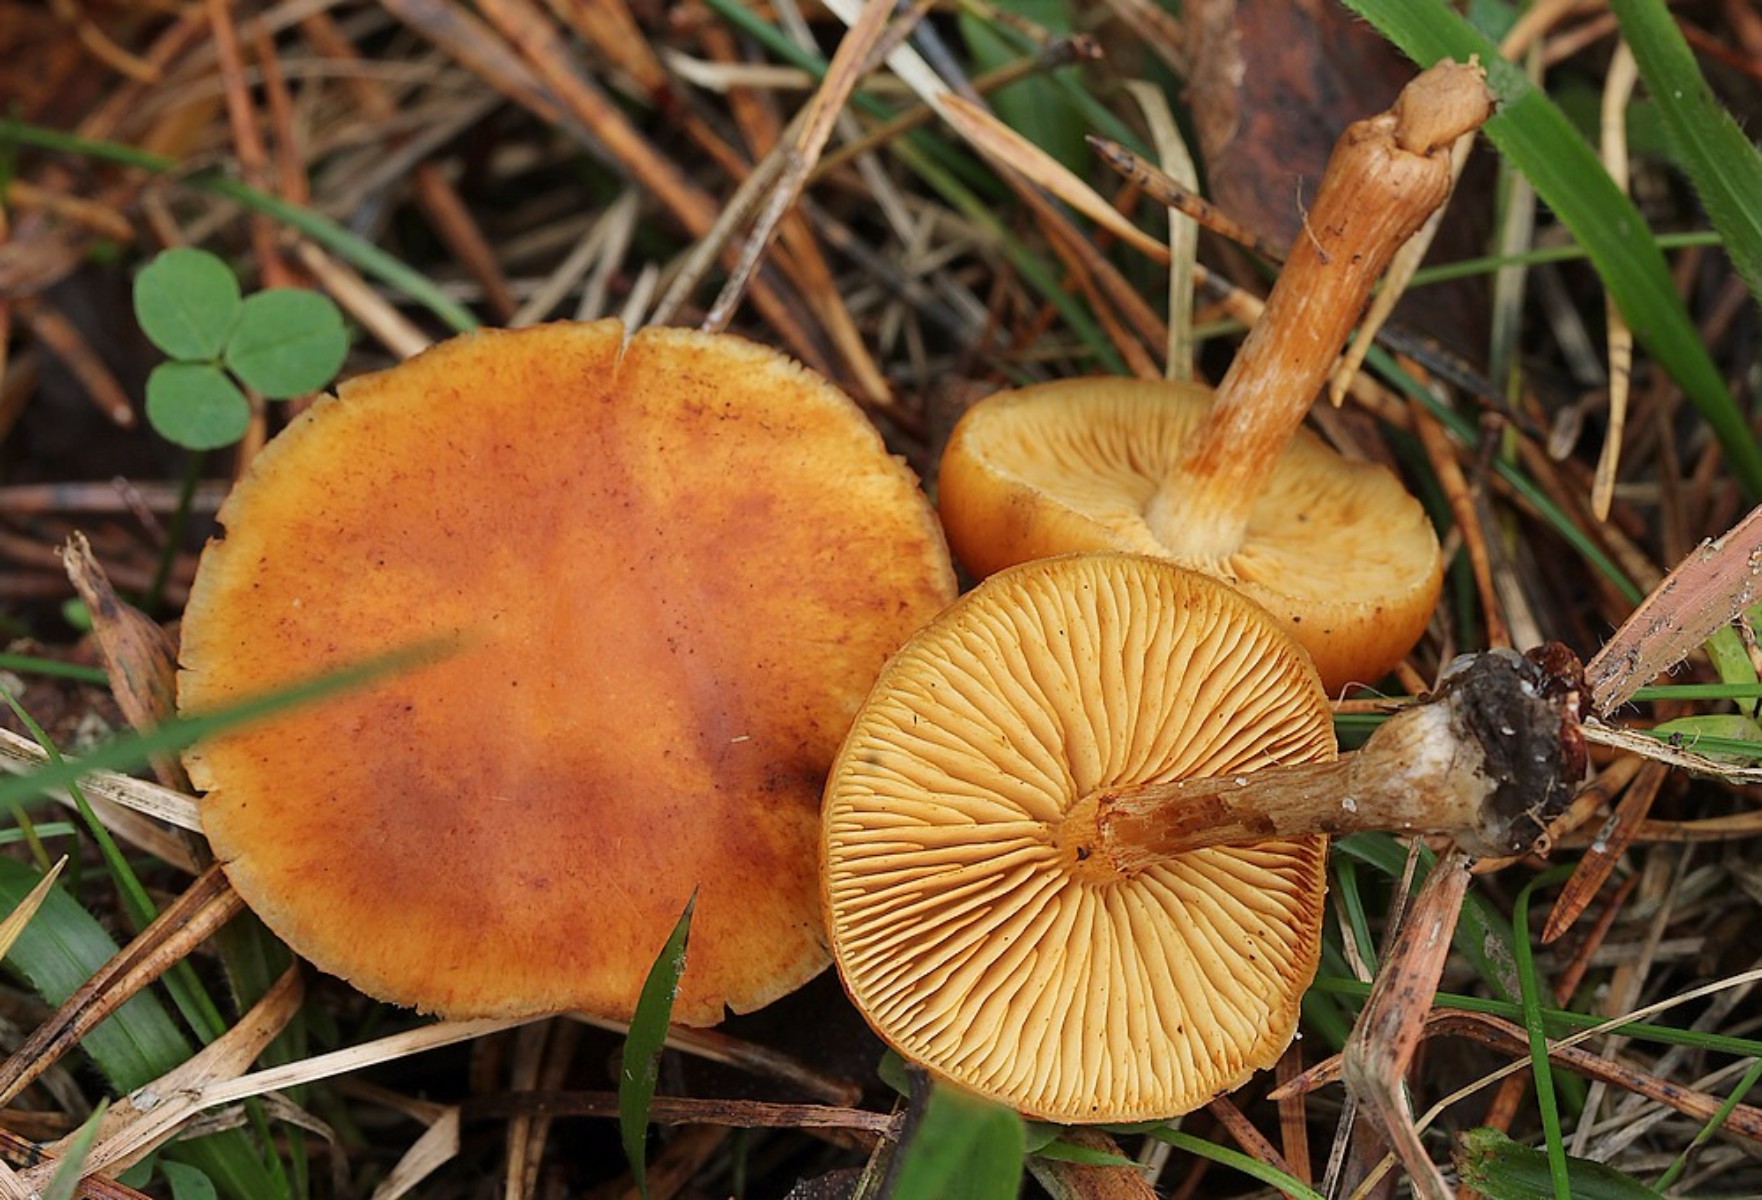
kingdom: Fungi
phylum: Basidiomycota
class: Agaricomycetes
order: Agaricales
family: Hymenogastraceae
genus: Gymnopilus
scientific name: Gymnopilus penetrans
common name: plettet flammehat
